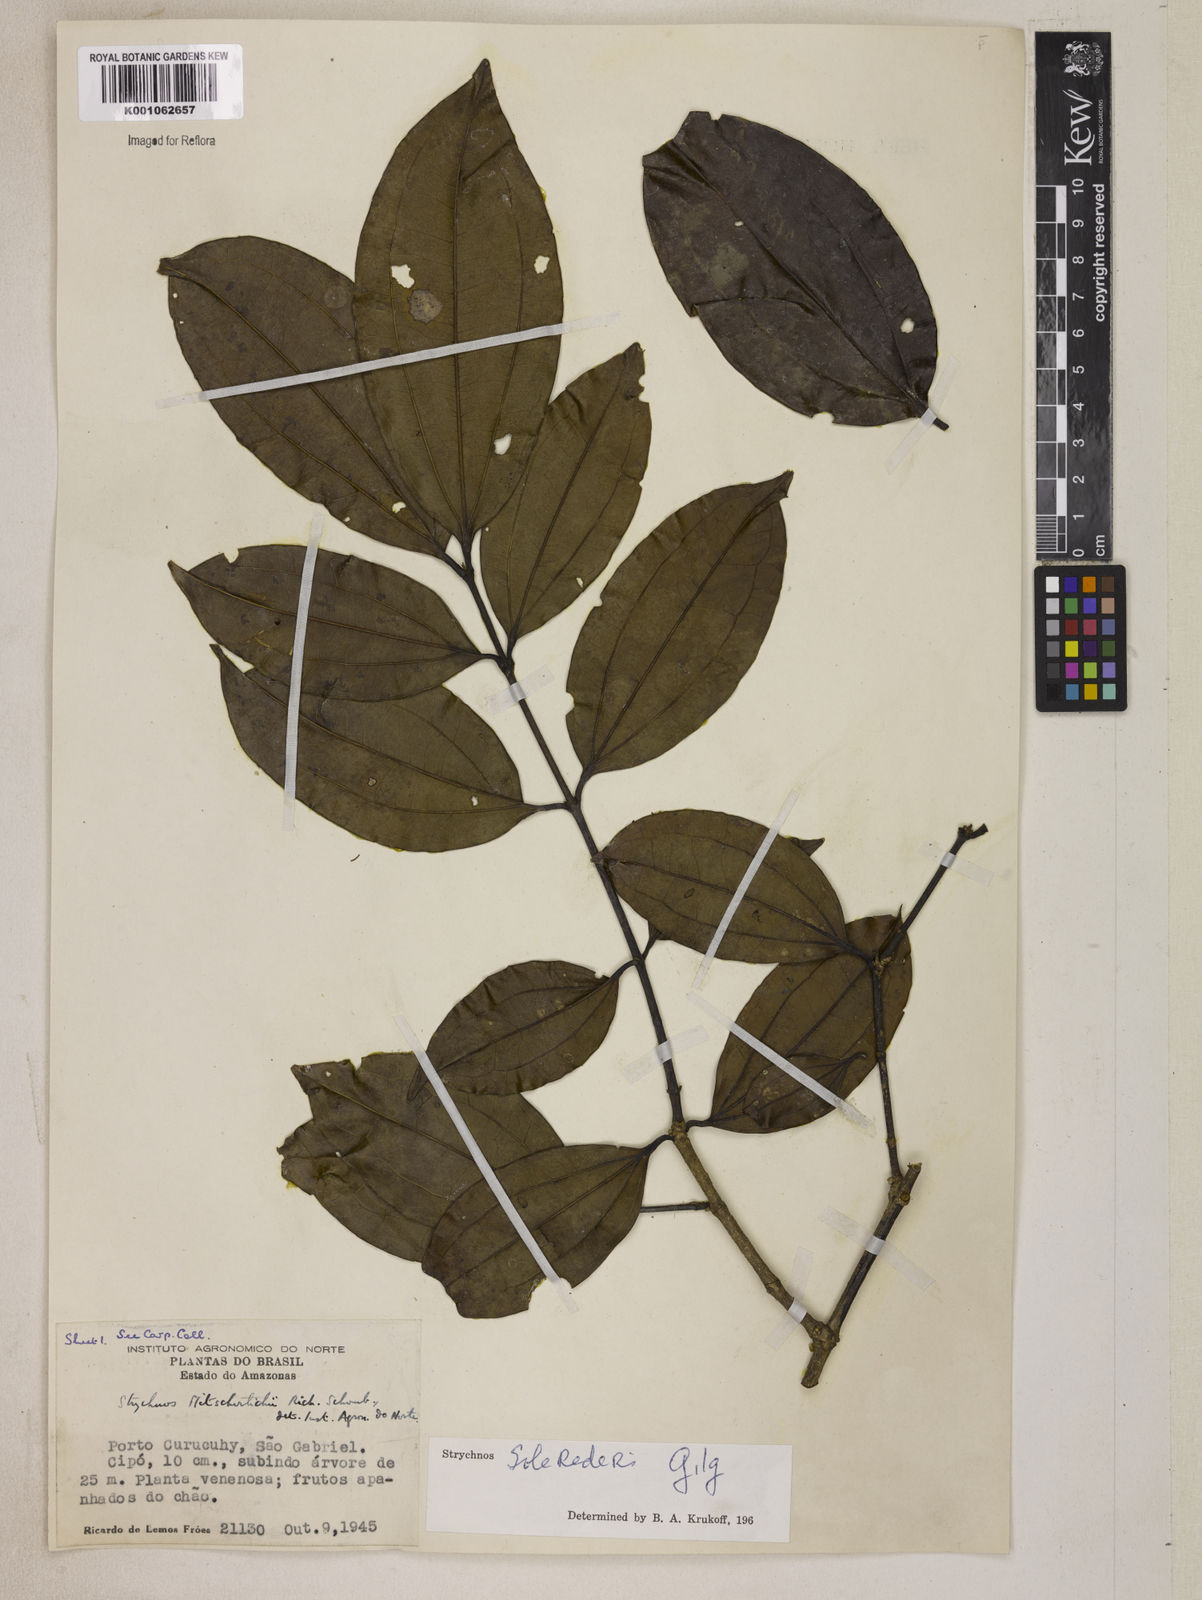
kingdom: Plantae
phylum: Tracheophyta
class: Magnoliopsida
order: Gentianales
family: Loganiaceae
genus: Strychnos
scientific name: Strychnos solerederi
